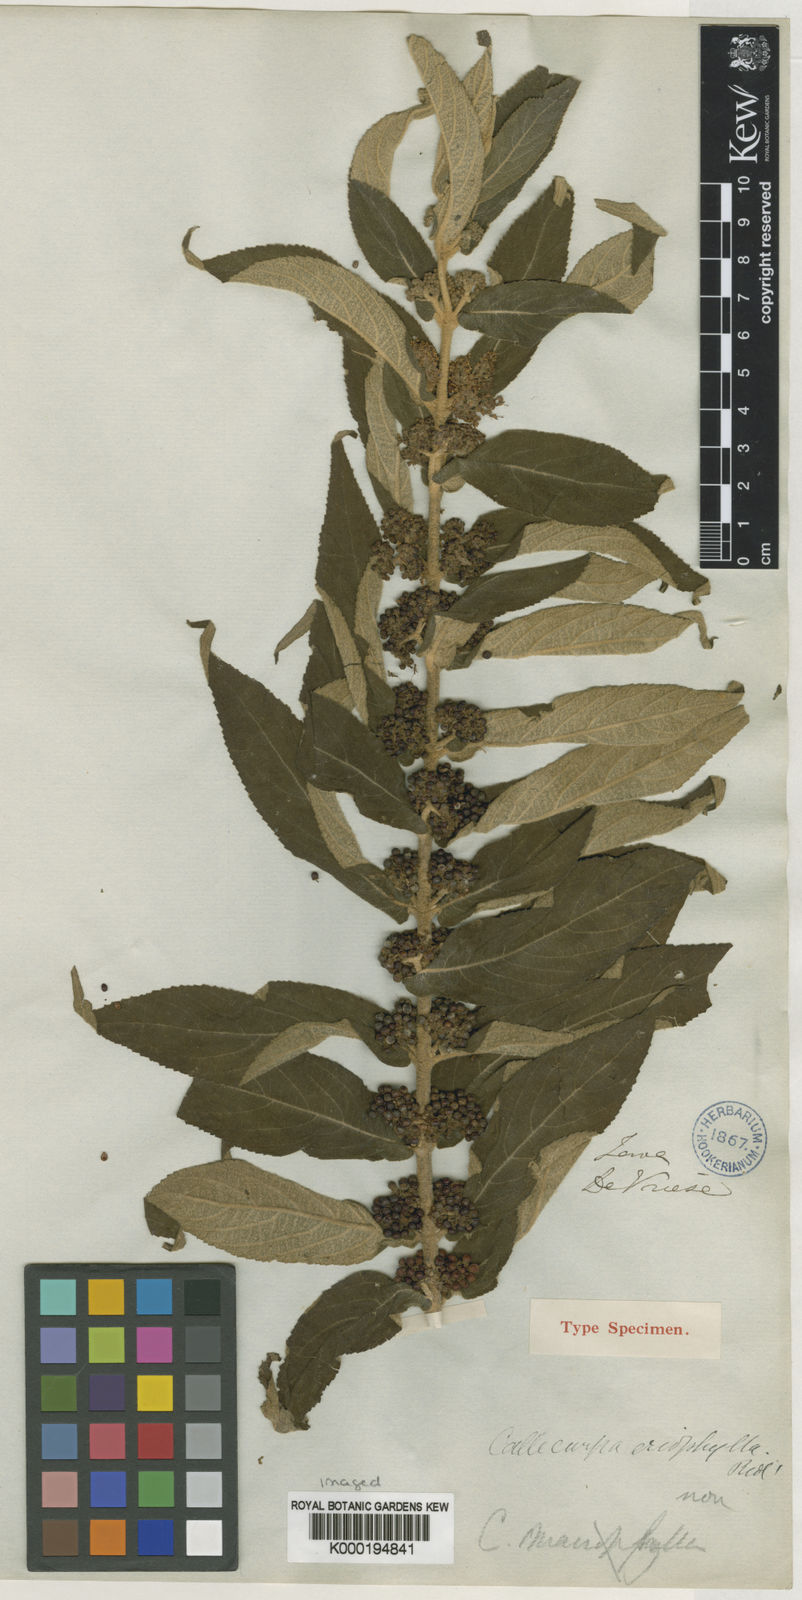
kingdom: Plantae
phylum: Tracheophyta
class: Magnoliopsida
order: Lamiales
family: Lamiaceae
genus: Callicarpa
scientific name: Callicarpa rubella
